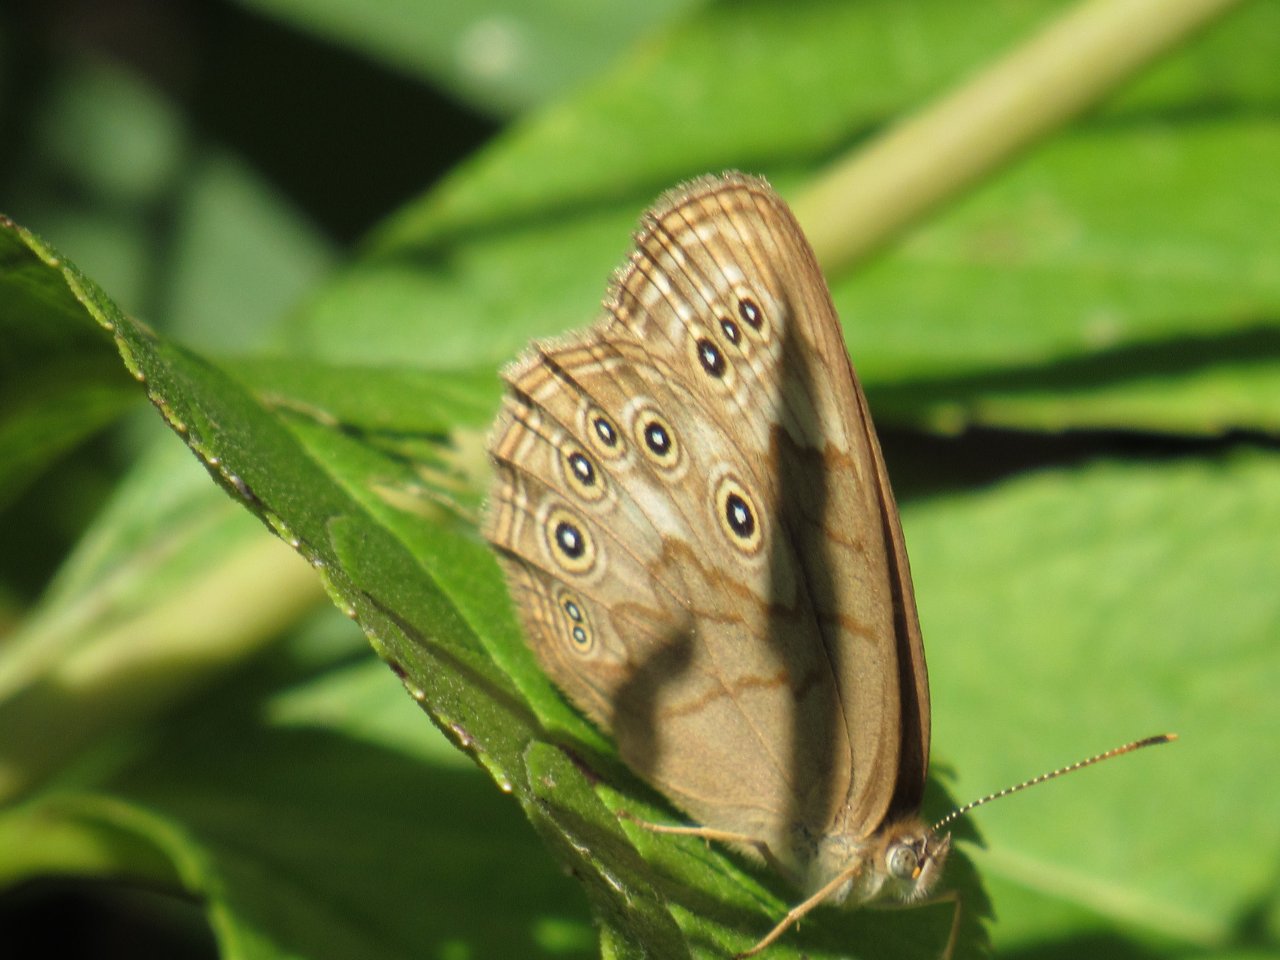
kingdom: Animalia
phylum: Arthropoda
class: Insecta
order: Lepidoptera
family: Nymphalidae
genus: Lethe
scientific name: Lethe eurydice
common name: Eyed Brown
